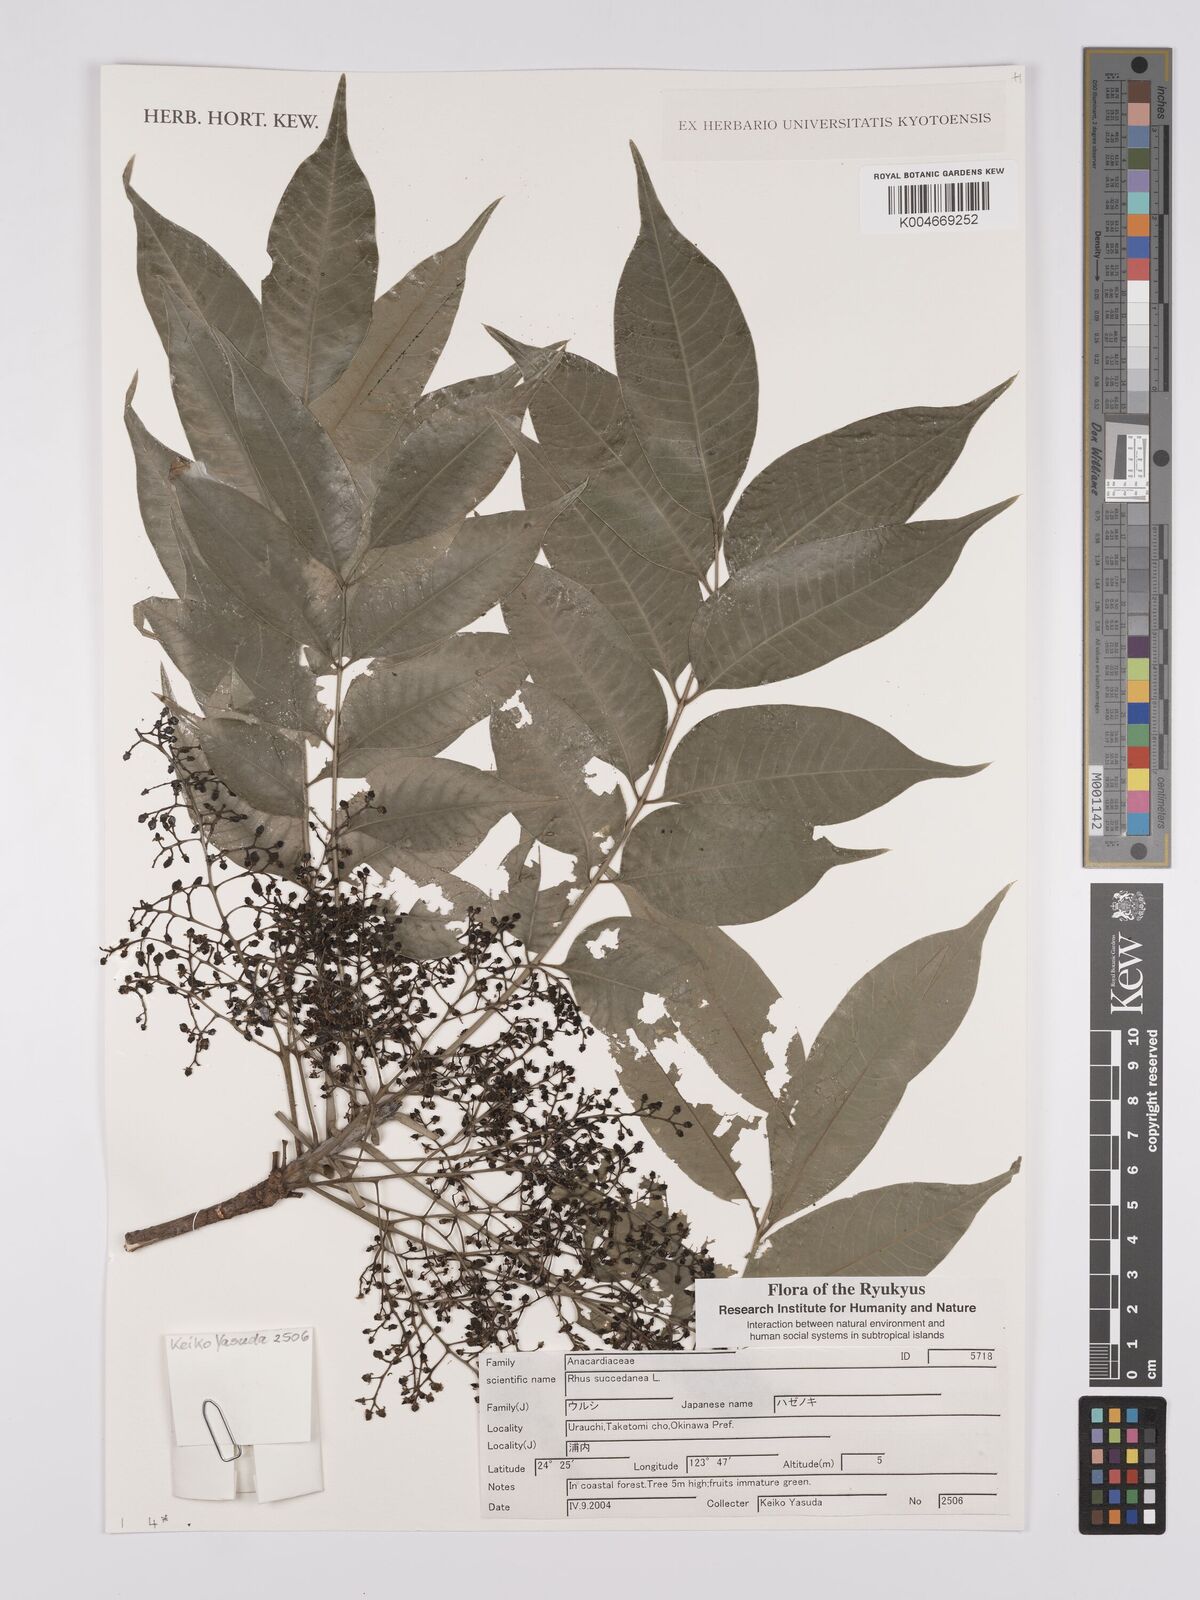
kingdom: Plantae
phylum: Tracheophyta
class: Magnoliopsida
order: Sapindales
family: Anacardiaceae
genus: Toxicodendron
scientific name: Toxicodendron succedaneum
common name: Wax tree
